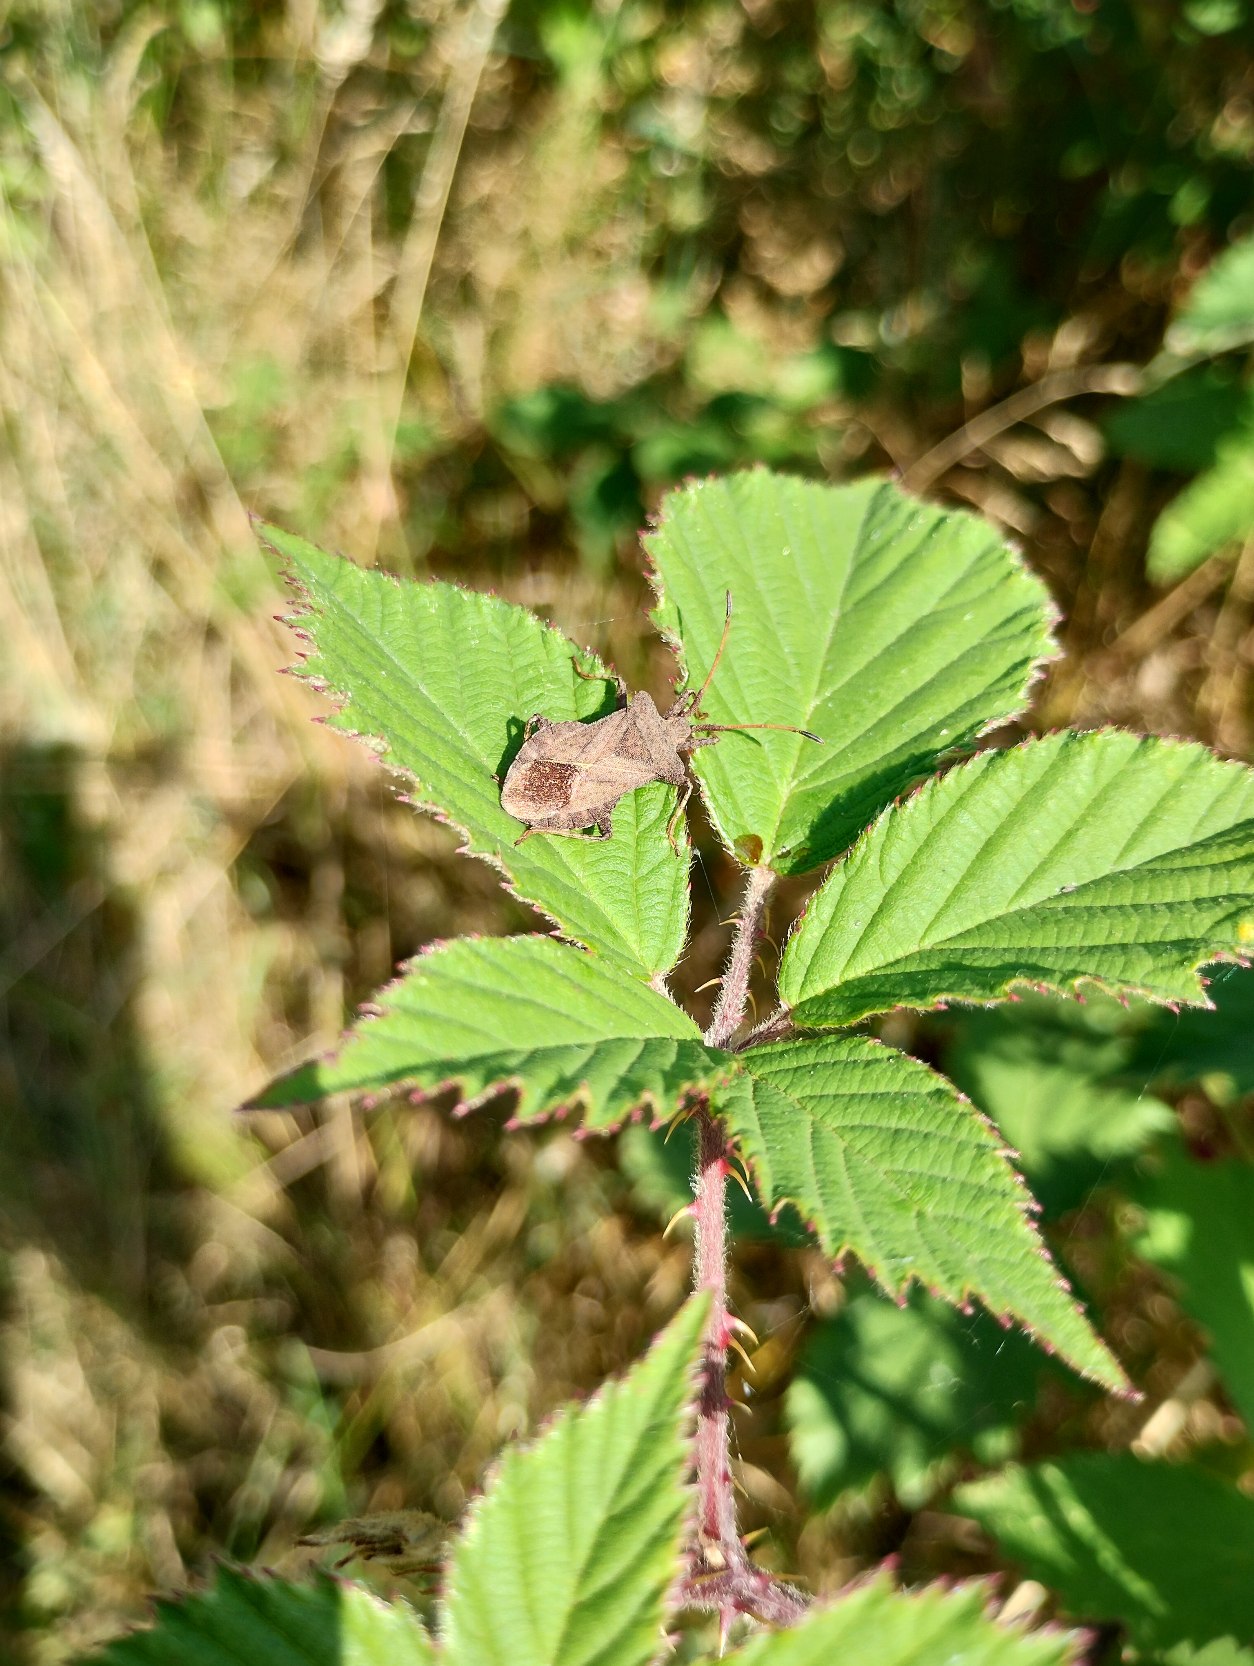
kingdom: Animalia
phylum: Arthropoda
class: Insecta
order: Hemiptera
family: Coreidae
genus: Coreus
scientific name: Coreus marginatus
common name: Skræppetæge
